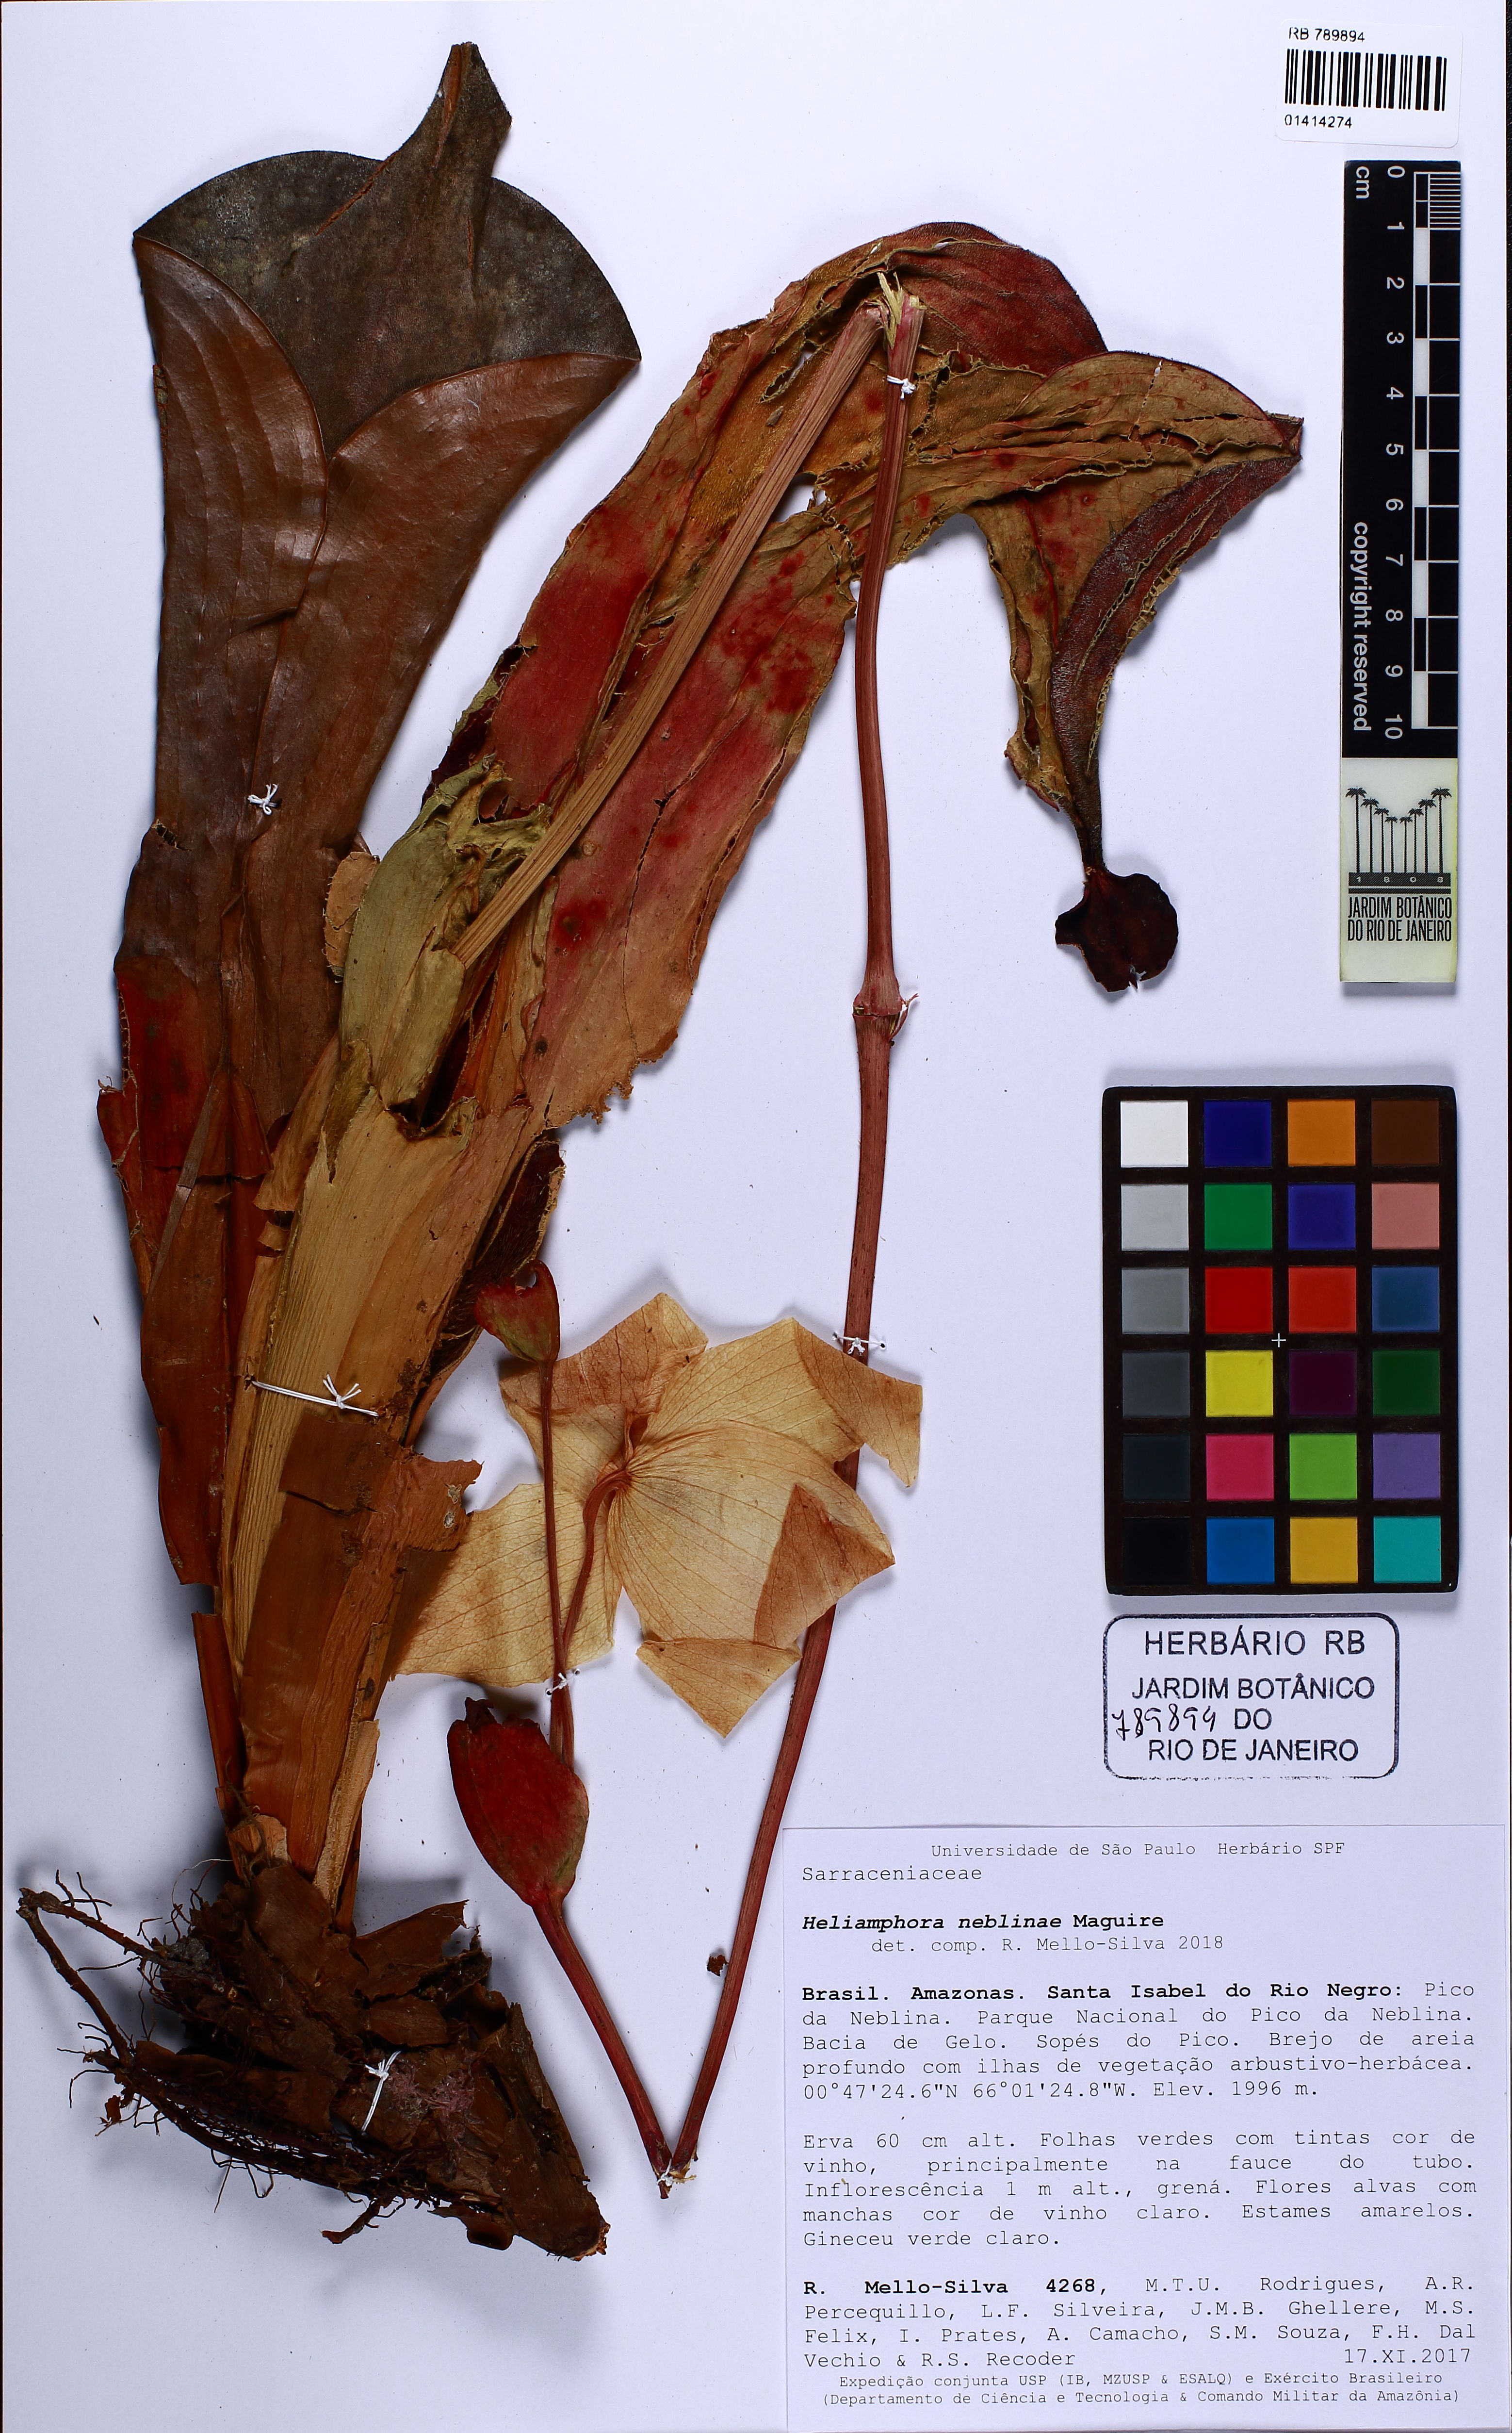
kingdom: Plantae
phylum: Tracheophyta
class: Magnoliopsida
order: Ericales
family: Sarraceniaceae
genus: Heliamphora
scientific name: Heliamphora tatei
